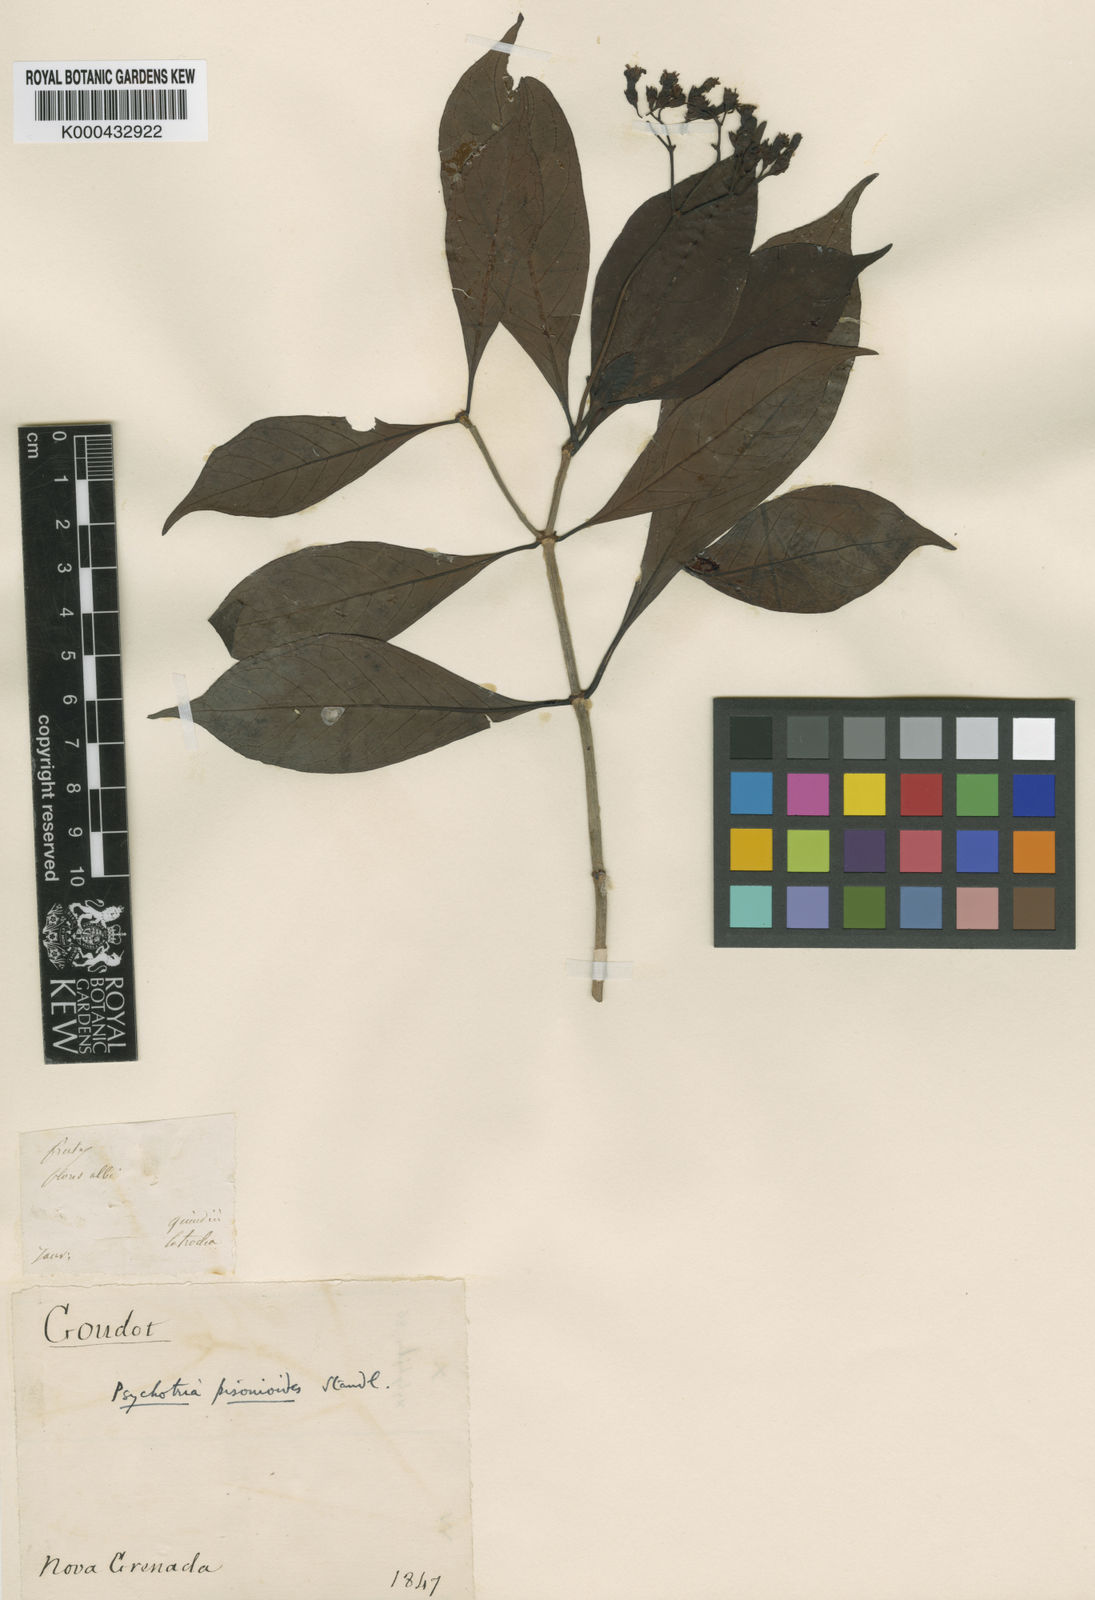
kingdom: Plantae
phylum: Tracheophyta
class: Magnoliopsida
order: Gentianales
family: Rubiaceae
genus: Psychotria
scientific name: Psychotria pisonioides
